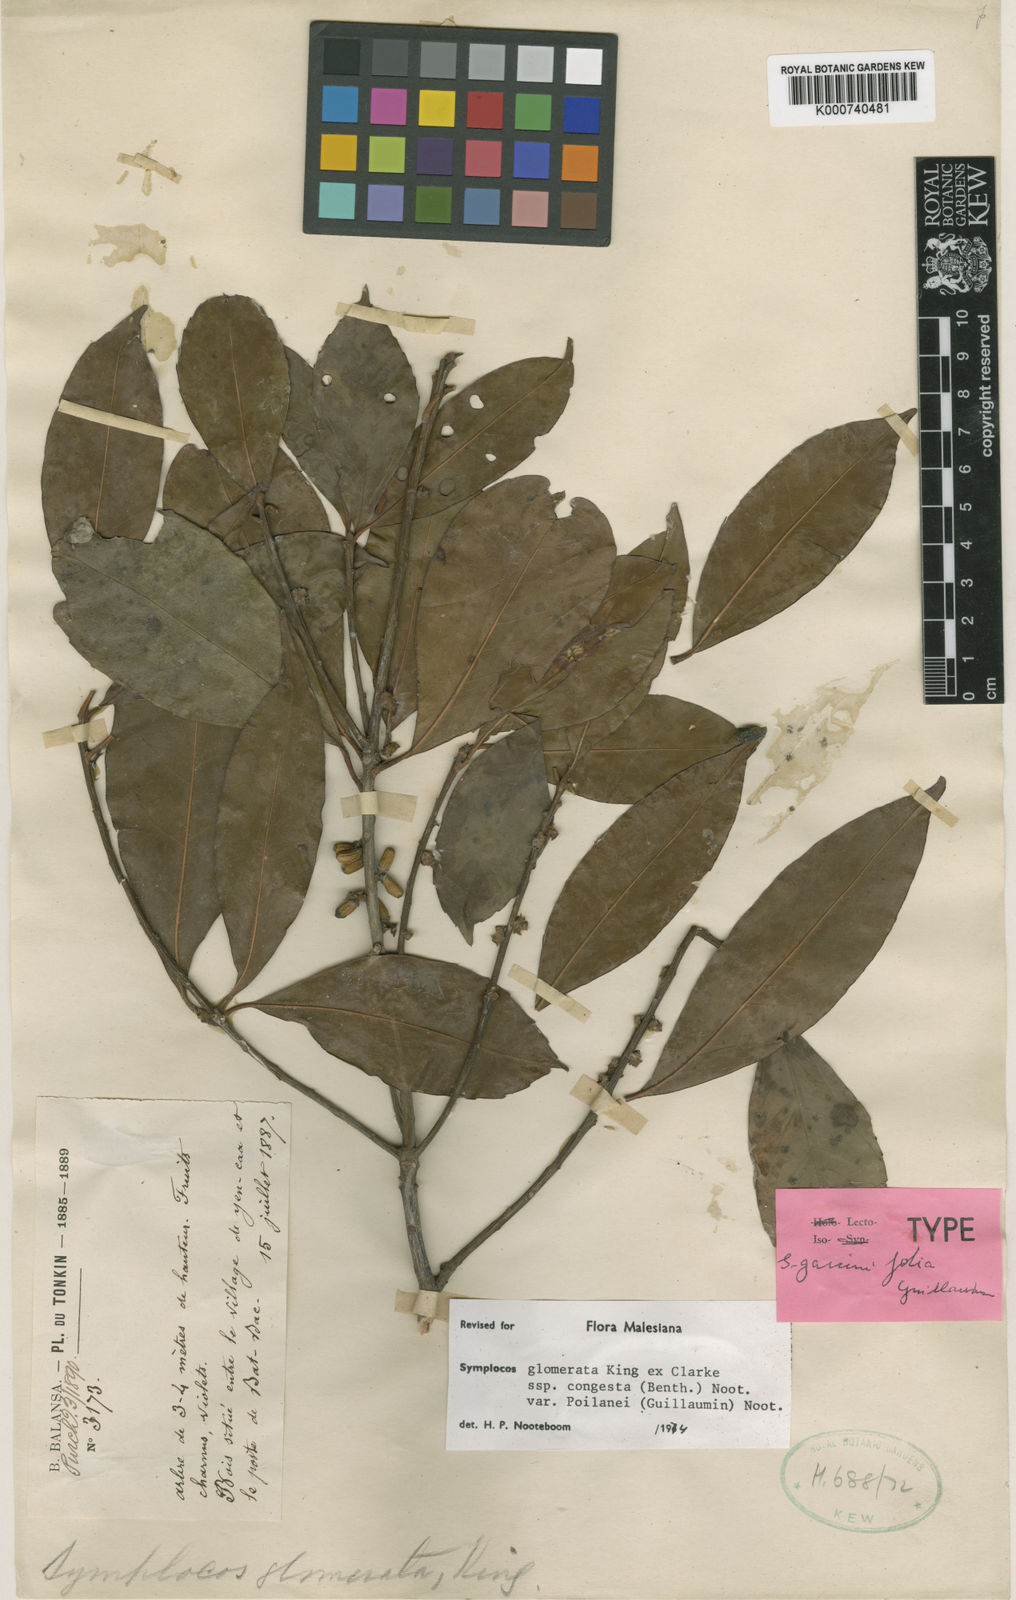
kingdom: Plantae
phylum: Tracheophyta
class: Magnoliopsida
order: Ericales
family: Symplocaceae
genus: Symplocos
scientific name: Symplocos glomerata
